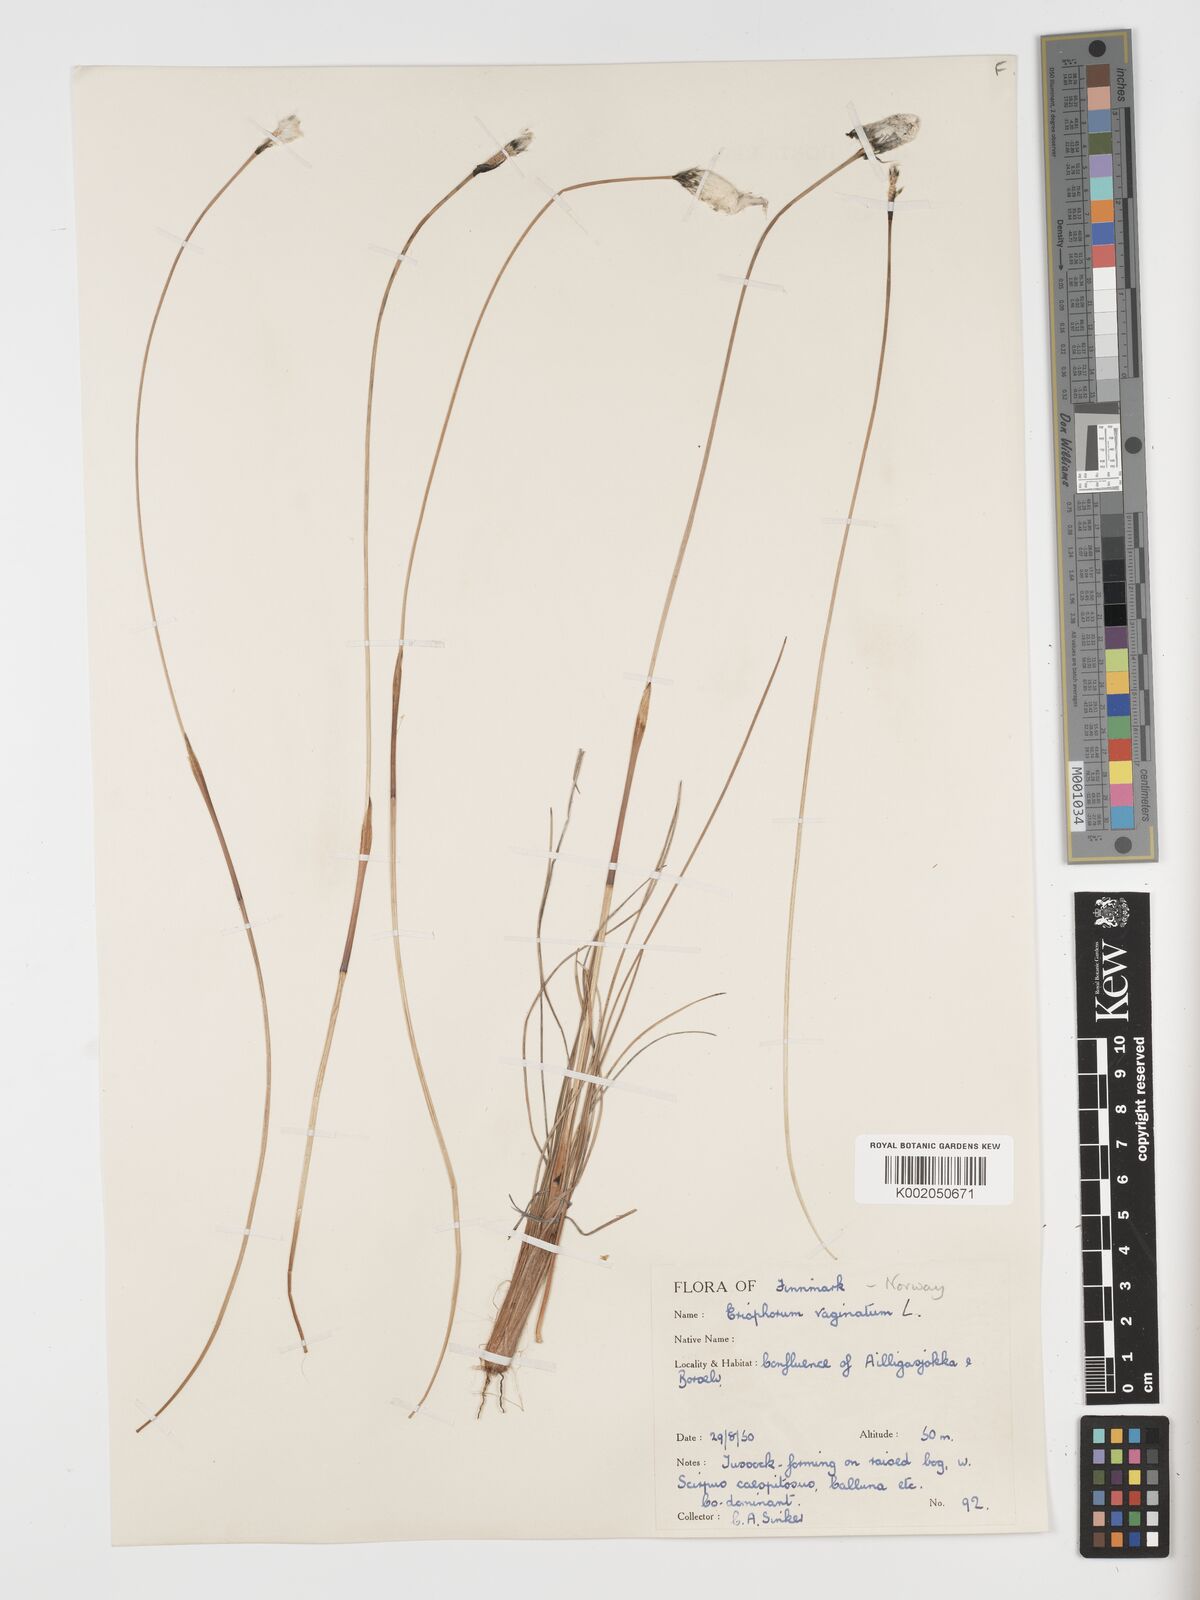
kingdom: Plantae
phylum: Tracheophyta
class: Liliopsida
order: Poales
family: Cyperaceae
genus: Eriophorum
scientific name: Eriophorum vaginatum
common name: Hare's-tail cottongrass
